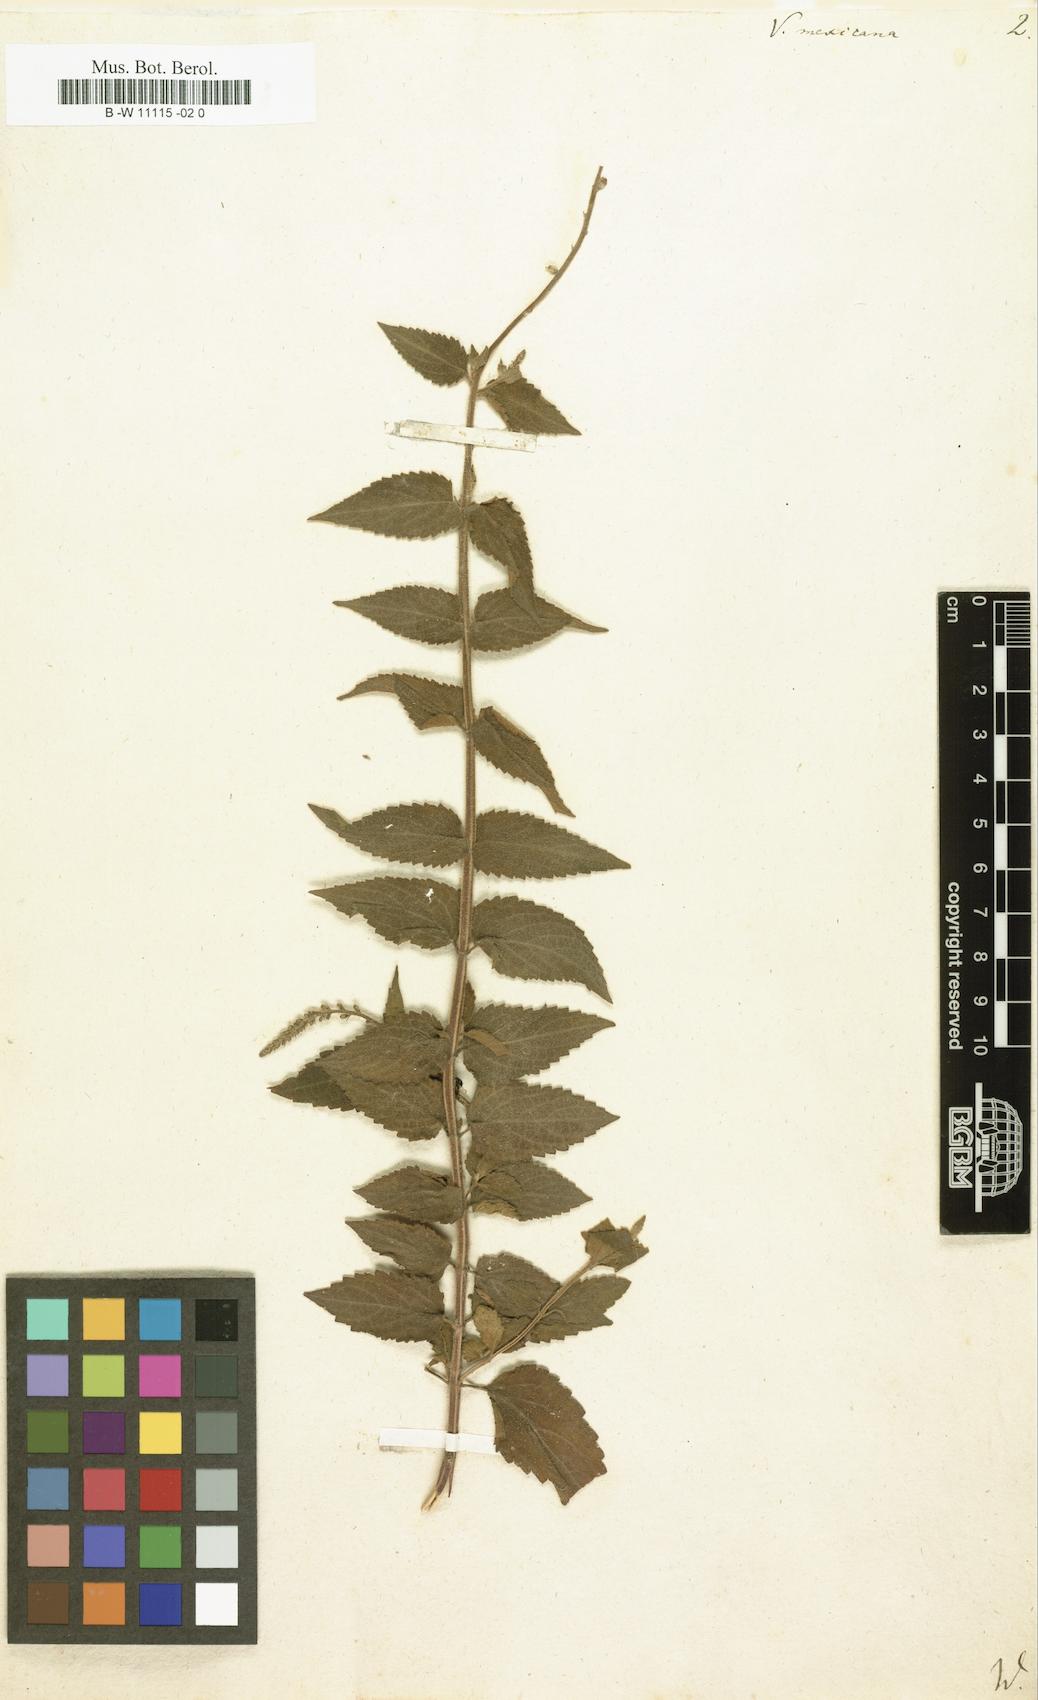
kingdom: Plantae
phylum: Tracheophyta
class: Magnoliopsida
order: Lamiales
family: Verbenaceae
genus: Priva
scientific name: Priva mexicana
